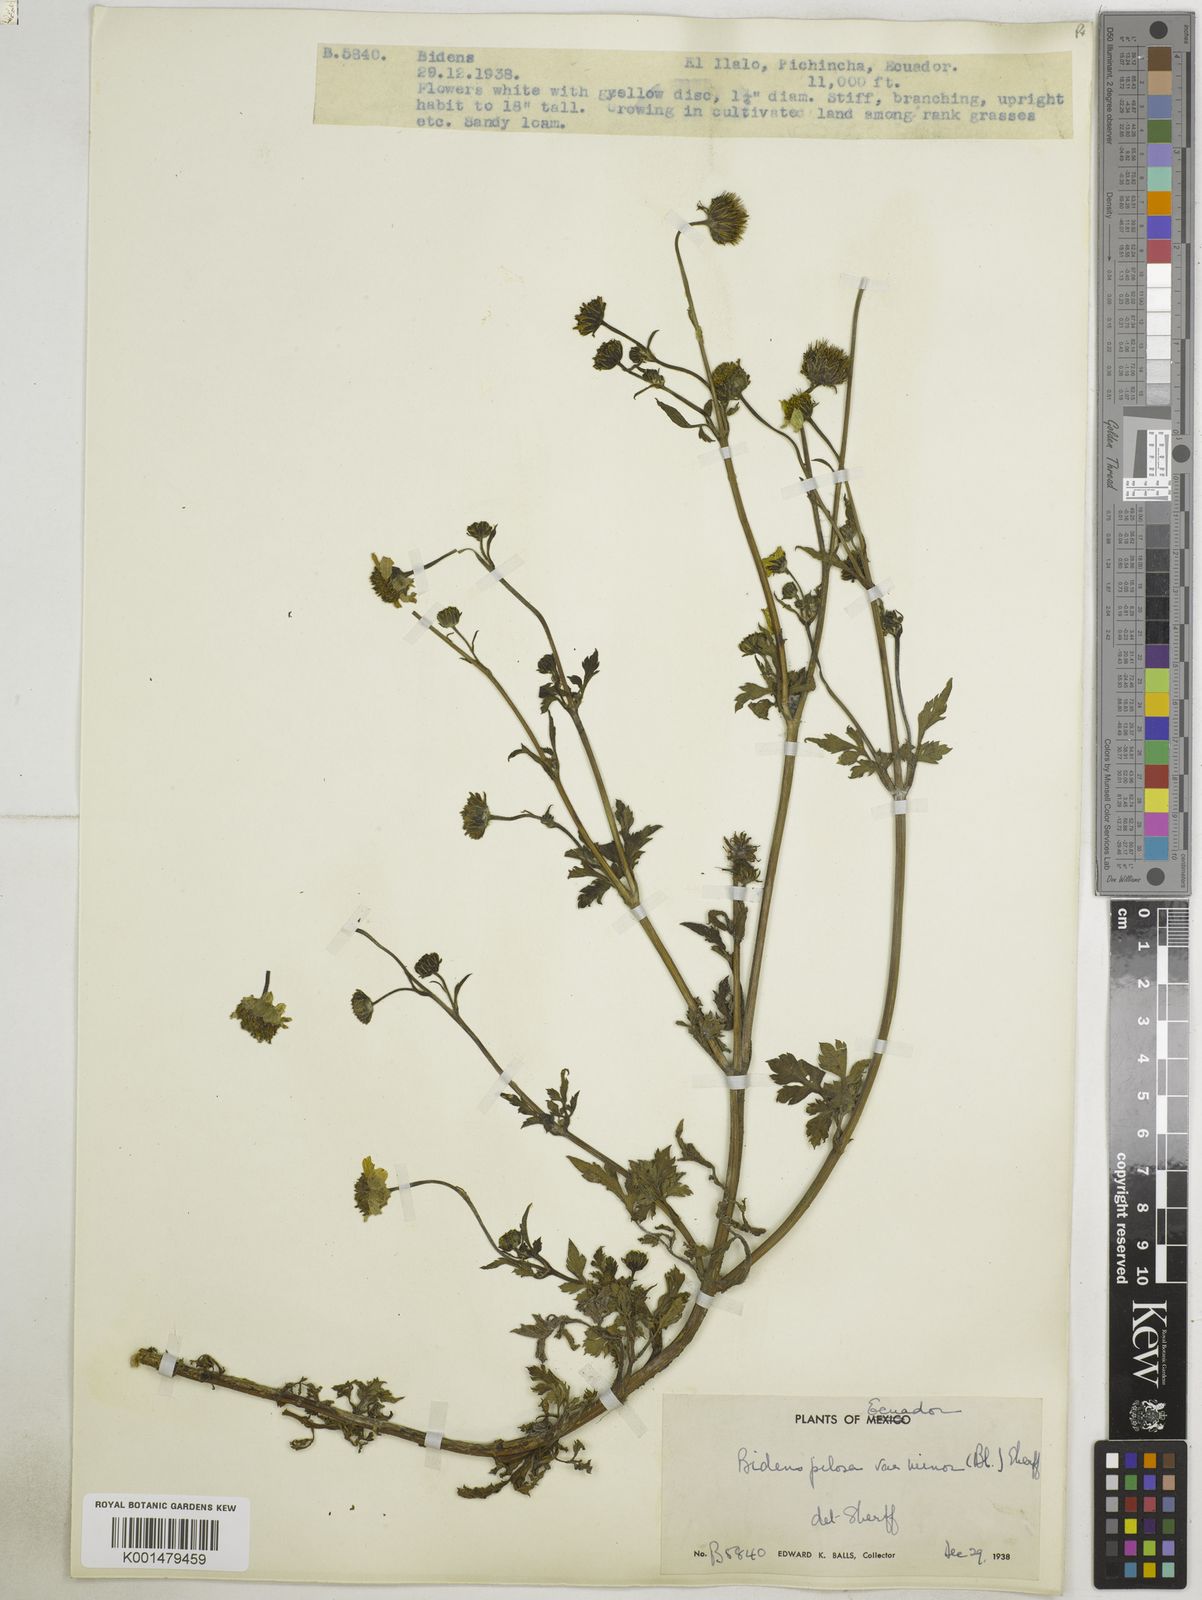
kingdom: Plantae
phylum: Tracheophyta
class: Magnoliopsida
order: Asterales
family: Asteraceae
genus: Bidens
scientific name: Bidens pilosa
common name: Black-jack
